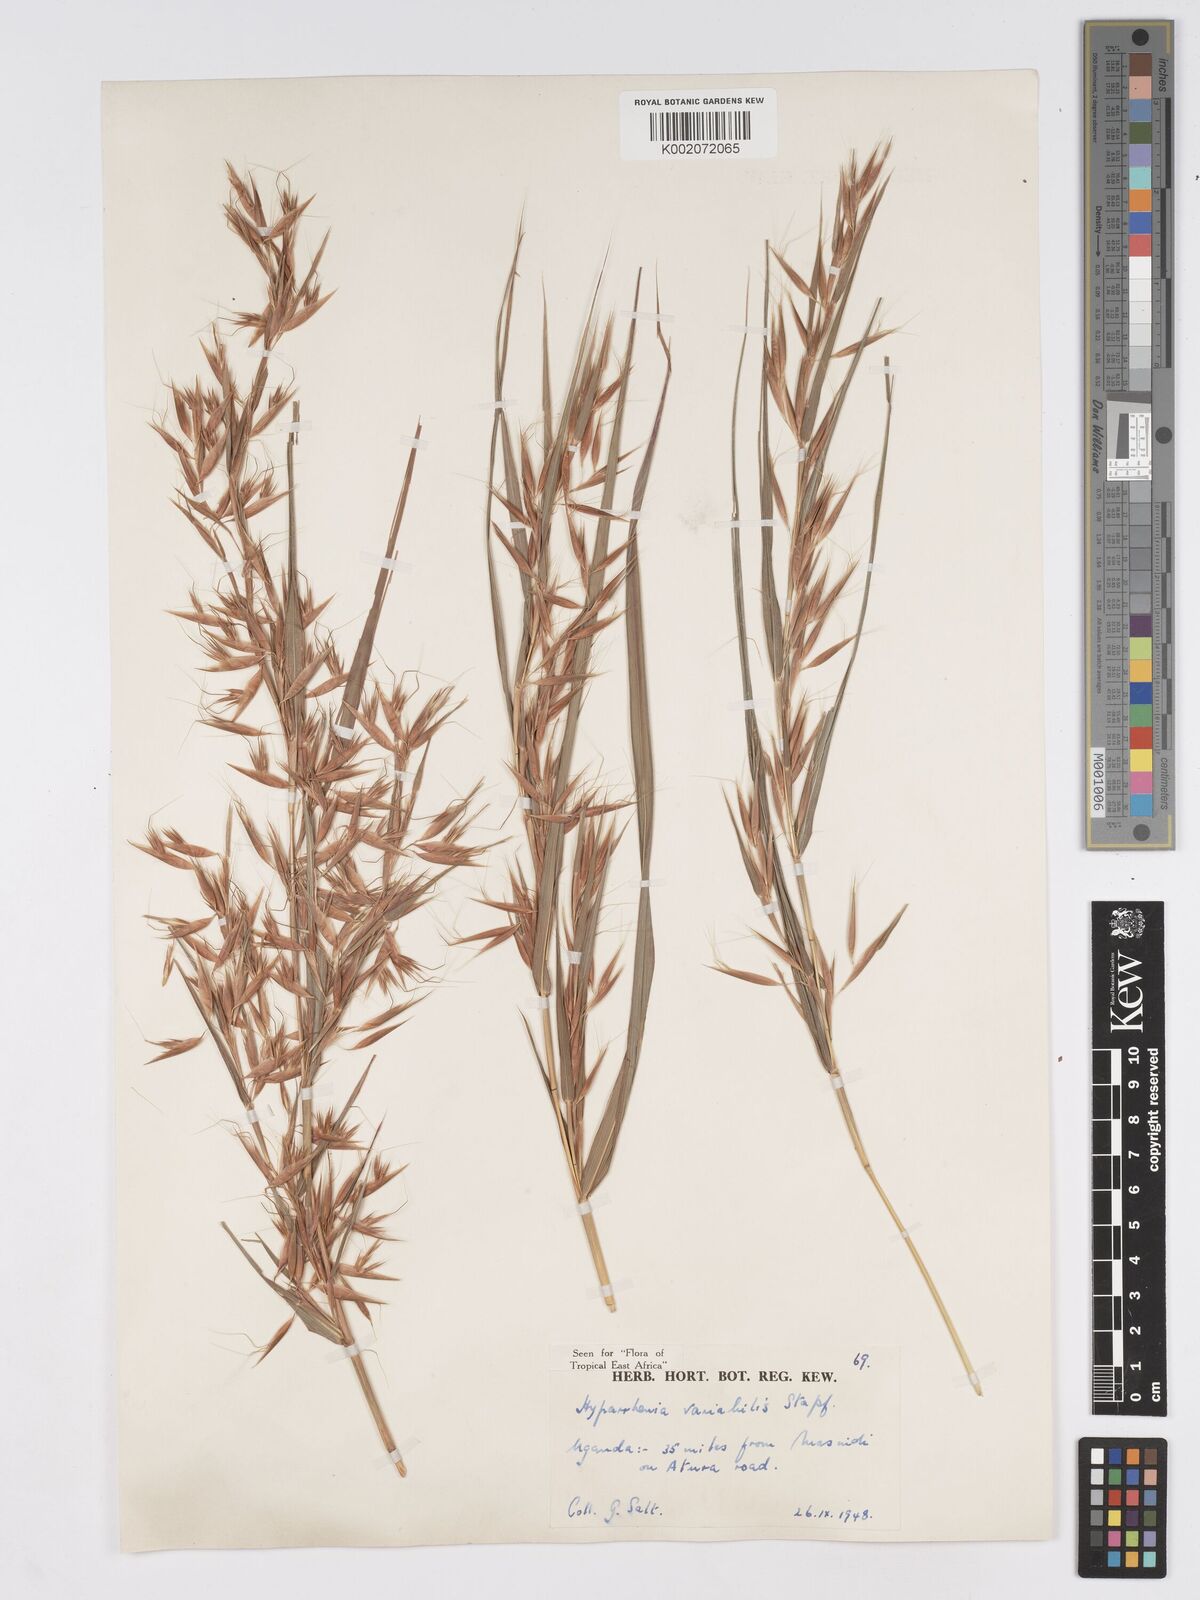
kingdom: Plantae
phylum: Tracheophyta
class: Liliopsida
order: Poales
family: Poaceae
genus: Hyparrhenia
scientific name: Hyparrhenia variabilis
